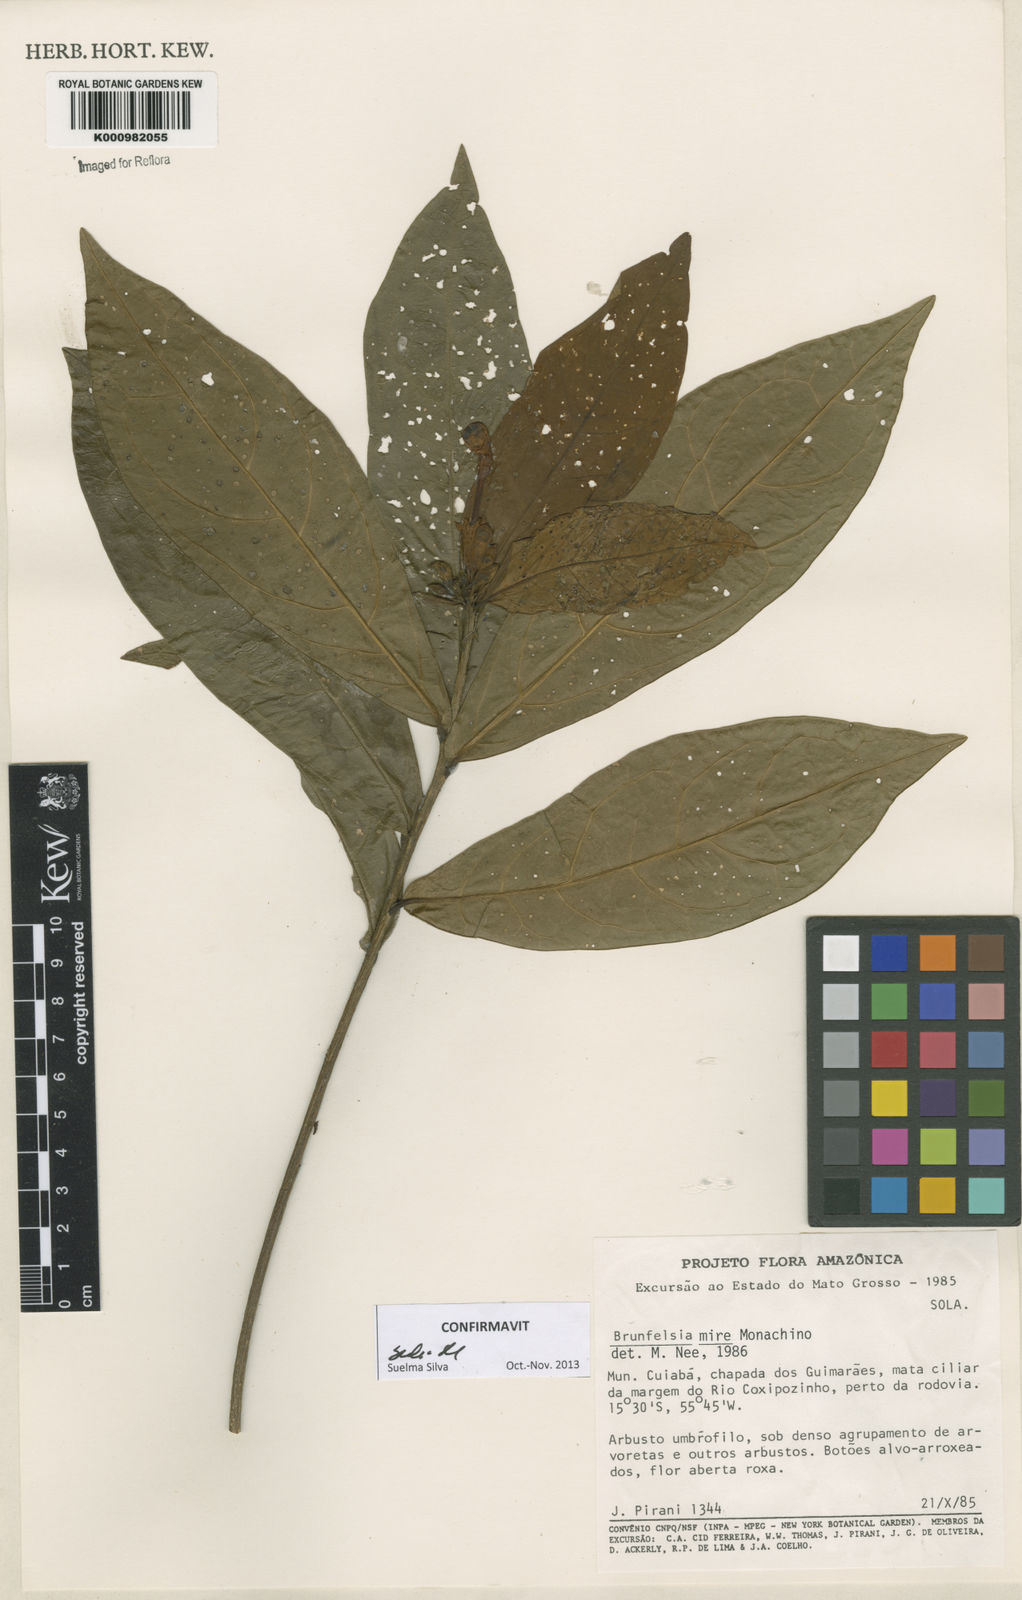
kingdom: Plantae
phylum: Tracheophyta
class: Magnoliopsida
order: Solanales
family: Solanaceae
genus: Brunfelsia
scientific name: Brunfelsia mire
